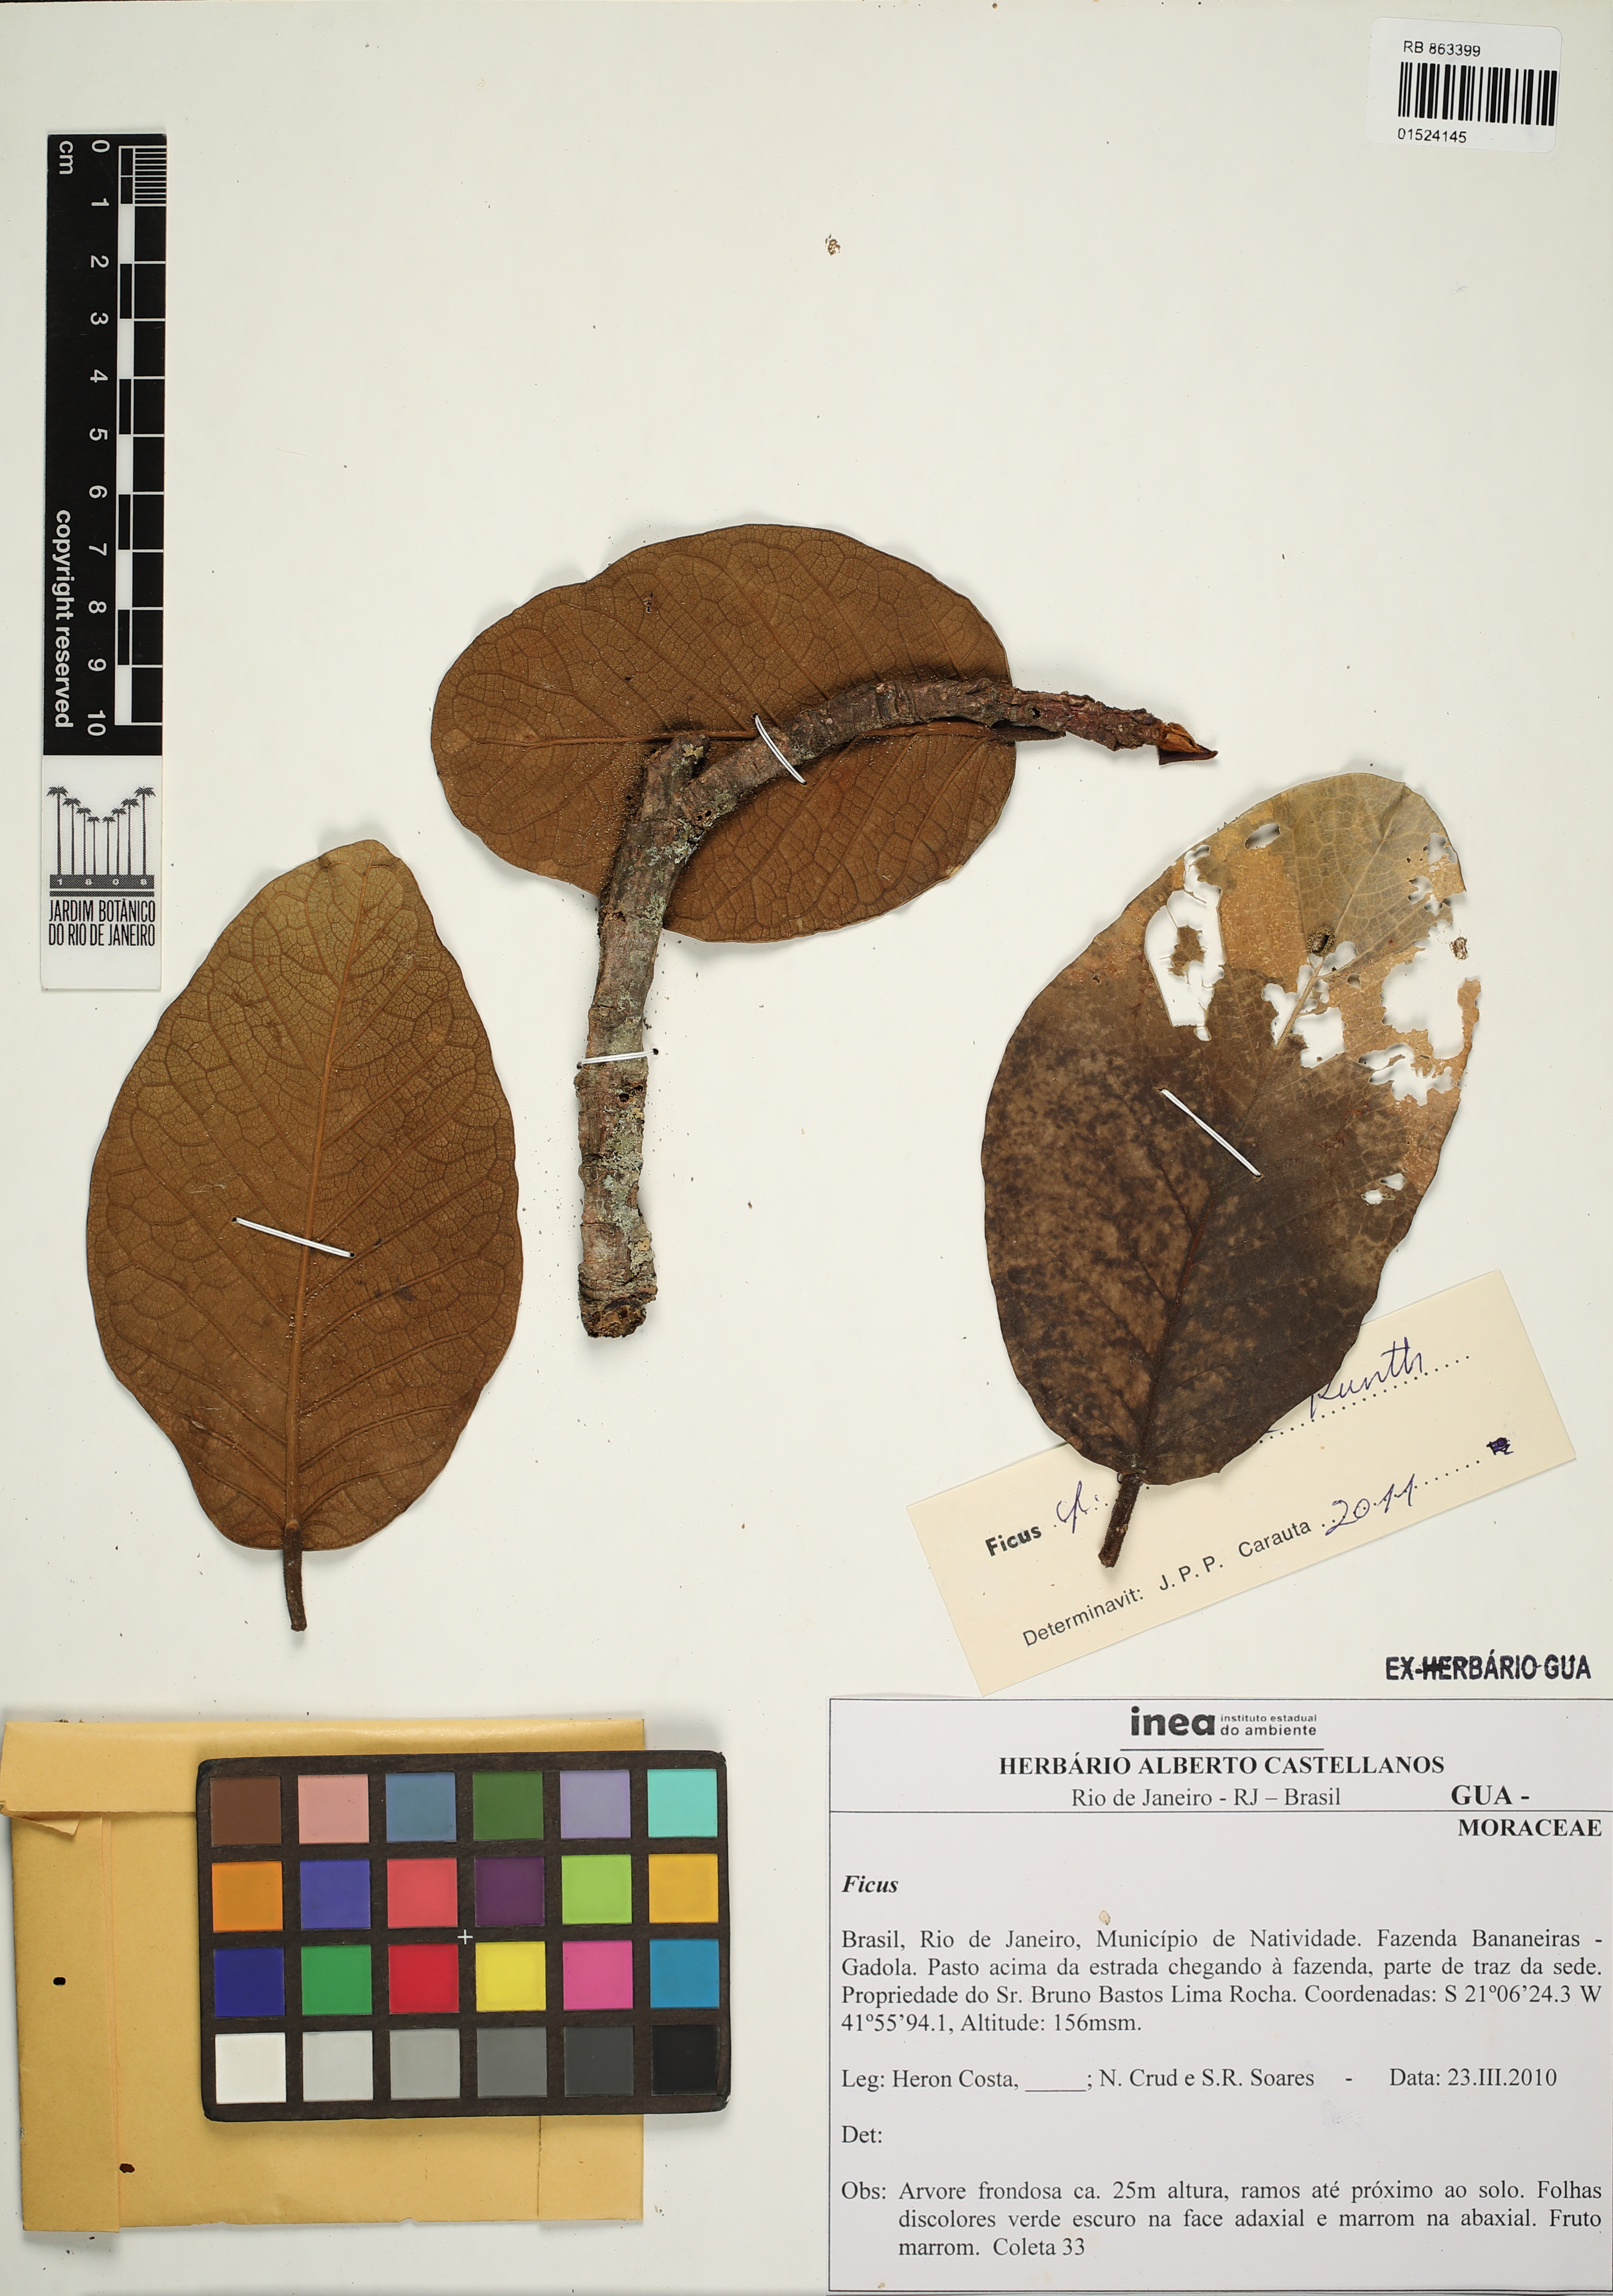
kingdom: Plantae
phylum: Tracheophyta
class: Magnoliopsida
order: Rosales
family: Moraceae
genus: Ficus
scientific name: Ficus gomelleira
